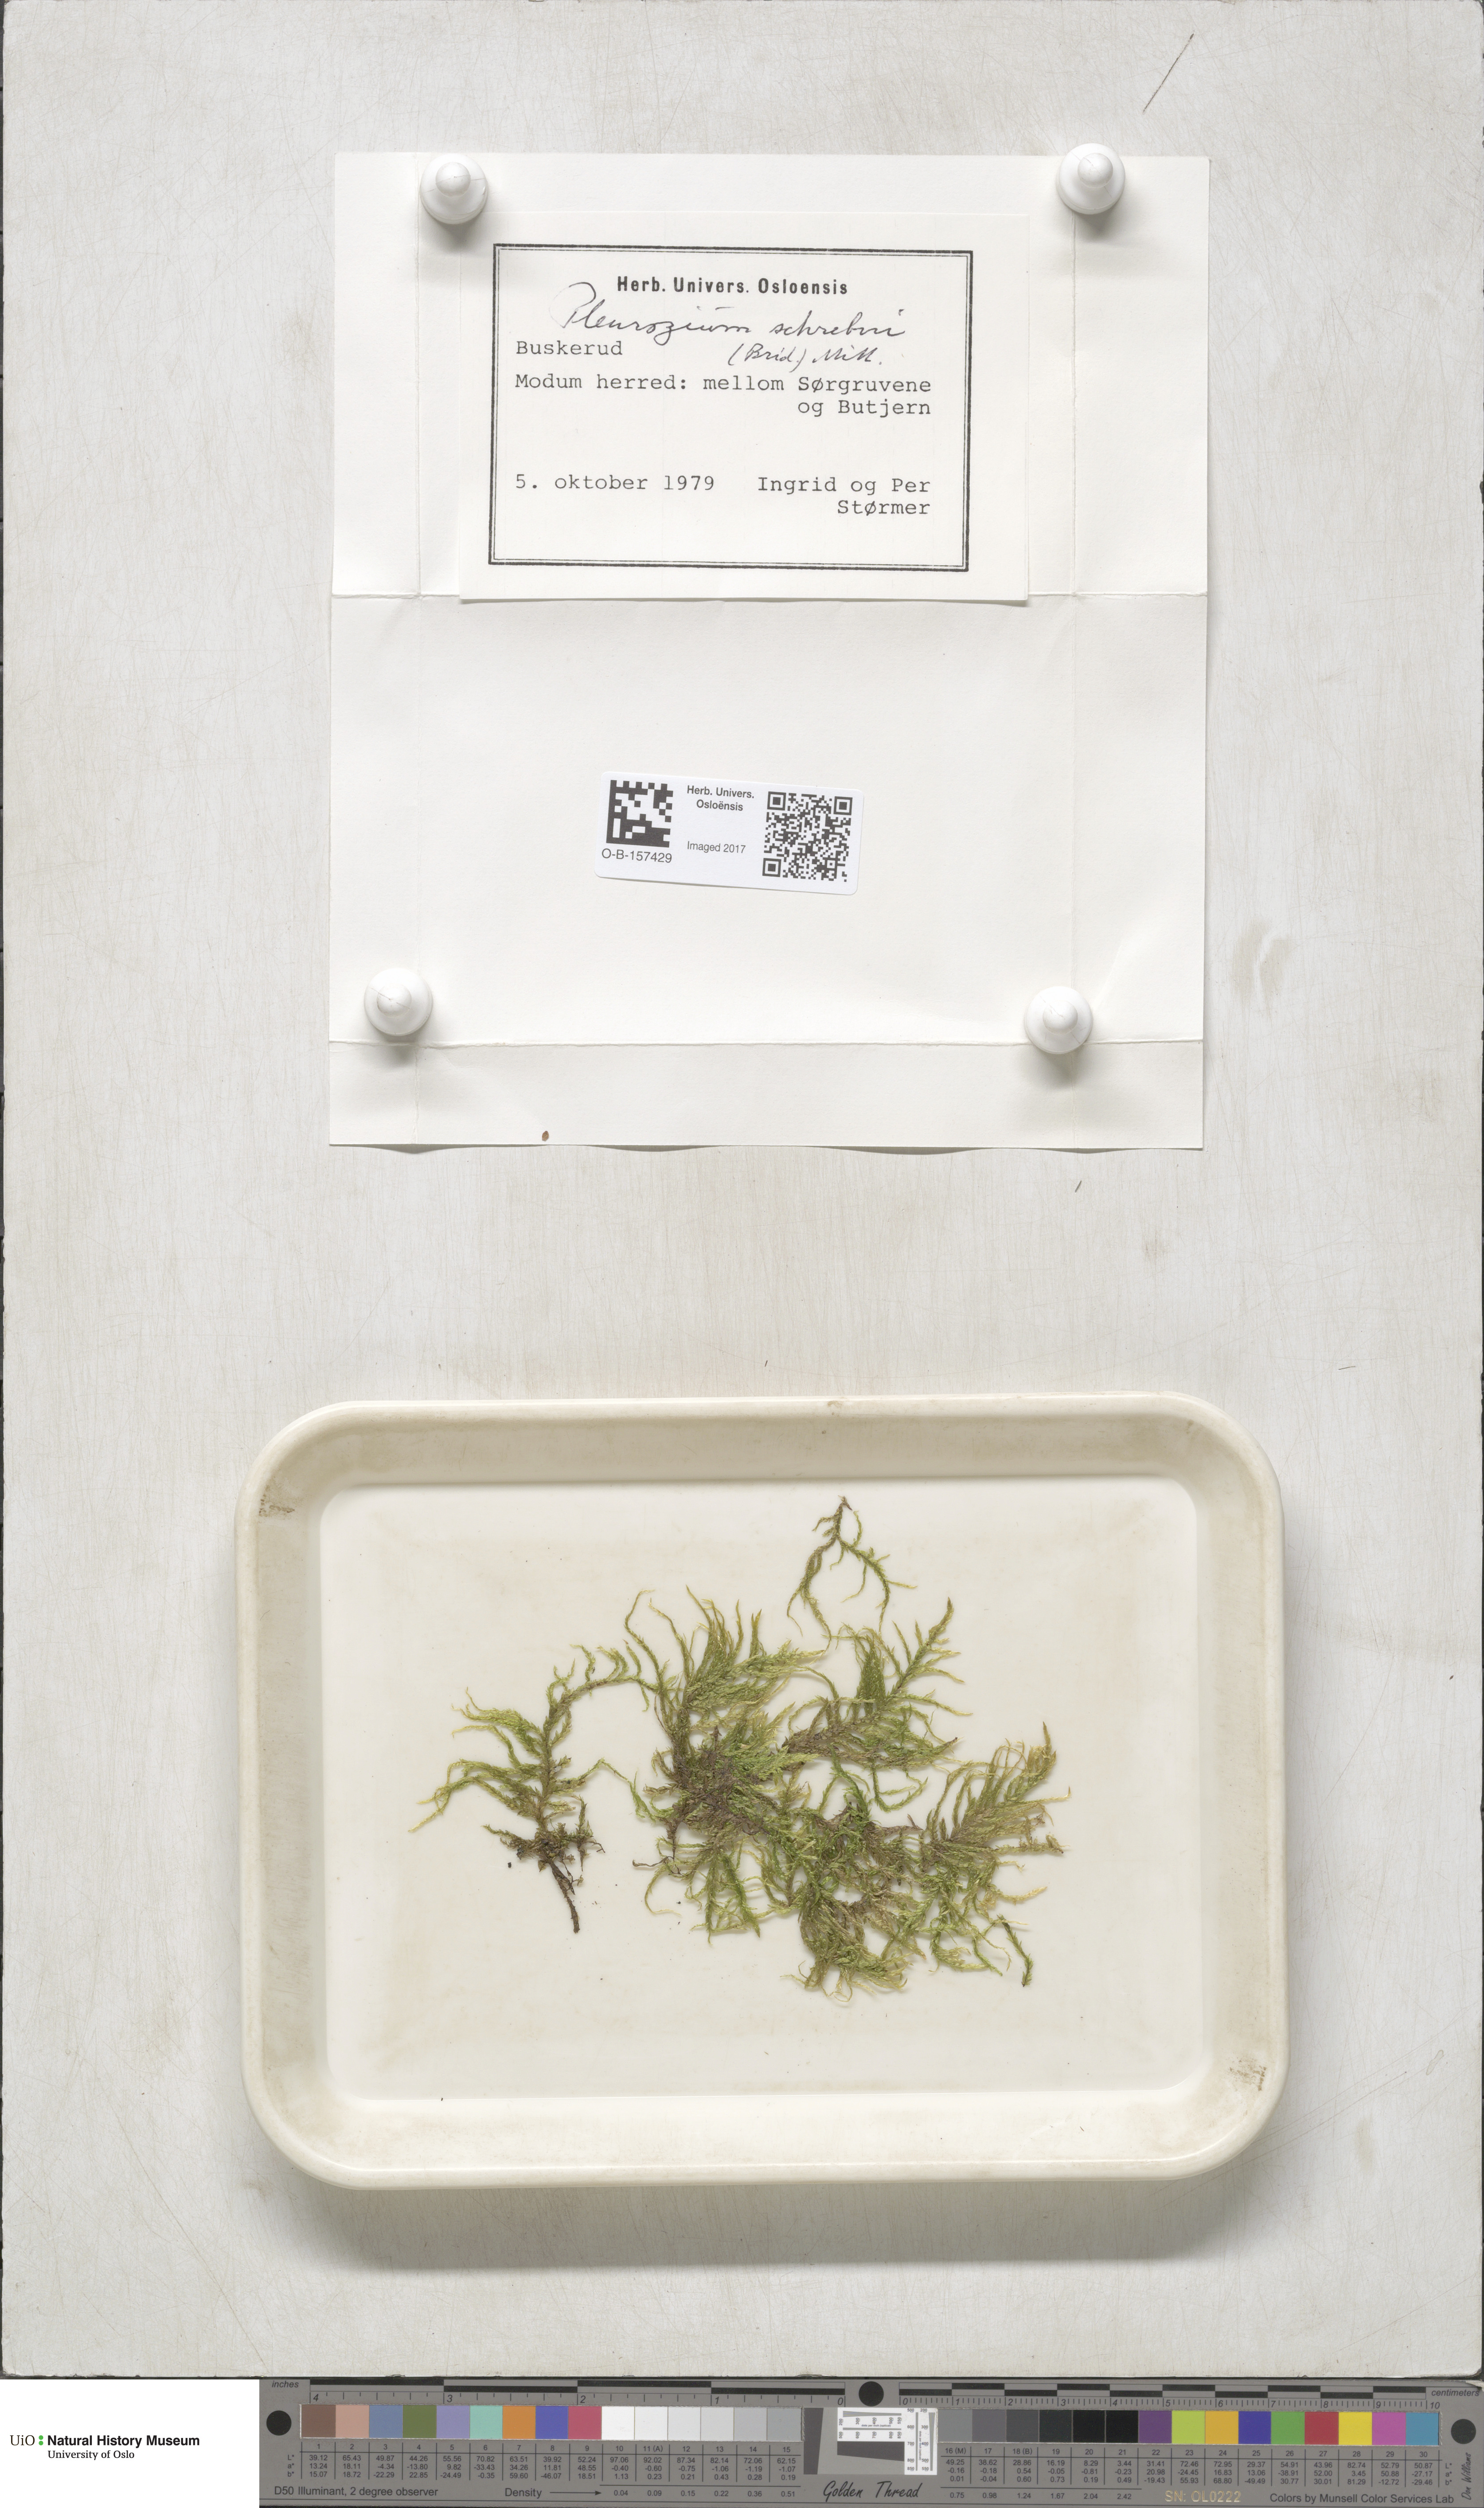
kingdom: Plantae
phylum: Bryophyta
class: Bryopsida
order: Hypnales
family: Hylocomiaceae
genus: Pleurozium
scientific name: Pleurozium schreberi
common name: Red-stemmed feather moss
